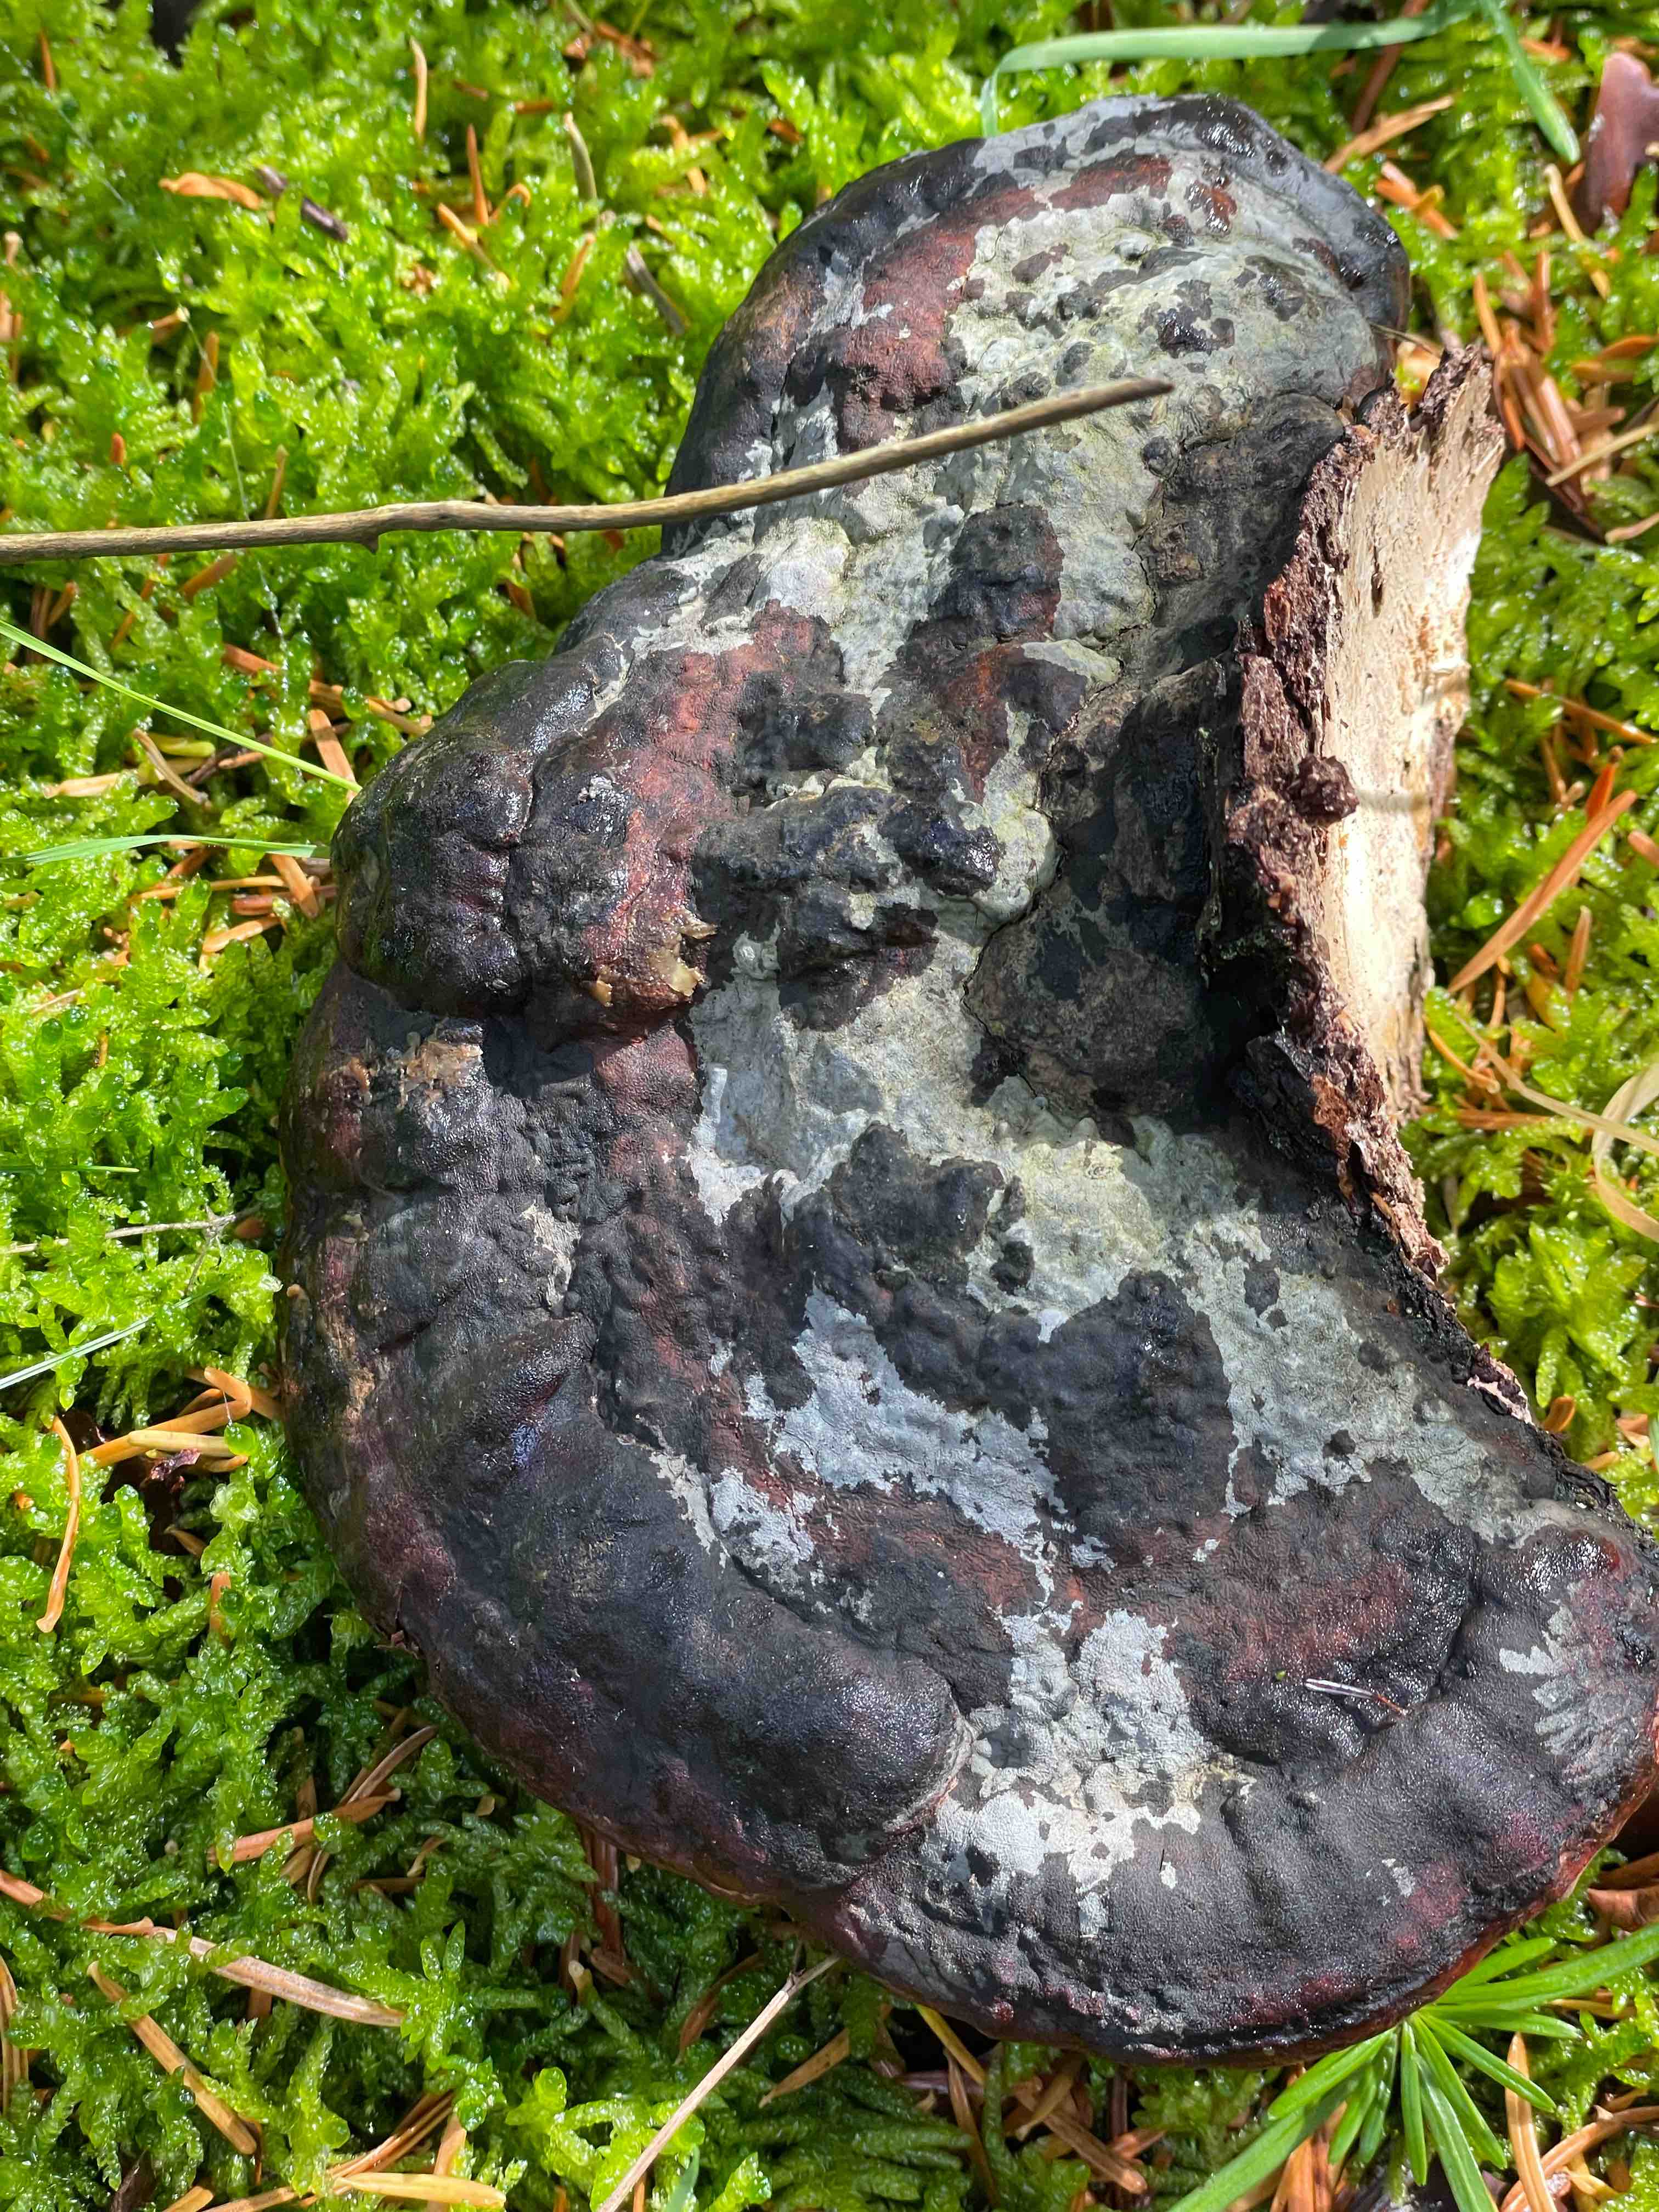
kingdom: Fungi
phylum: Basidiomycota
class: Agaricomycetes
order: Polyporales
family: Fomitopsidaceae
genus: Fomitopsis
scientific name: Fomitopsis pinicola
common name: randbæltet hovporesvamp
